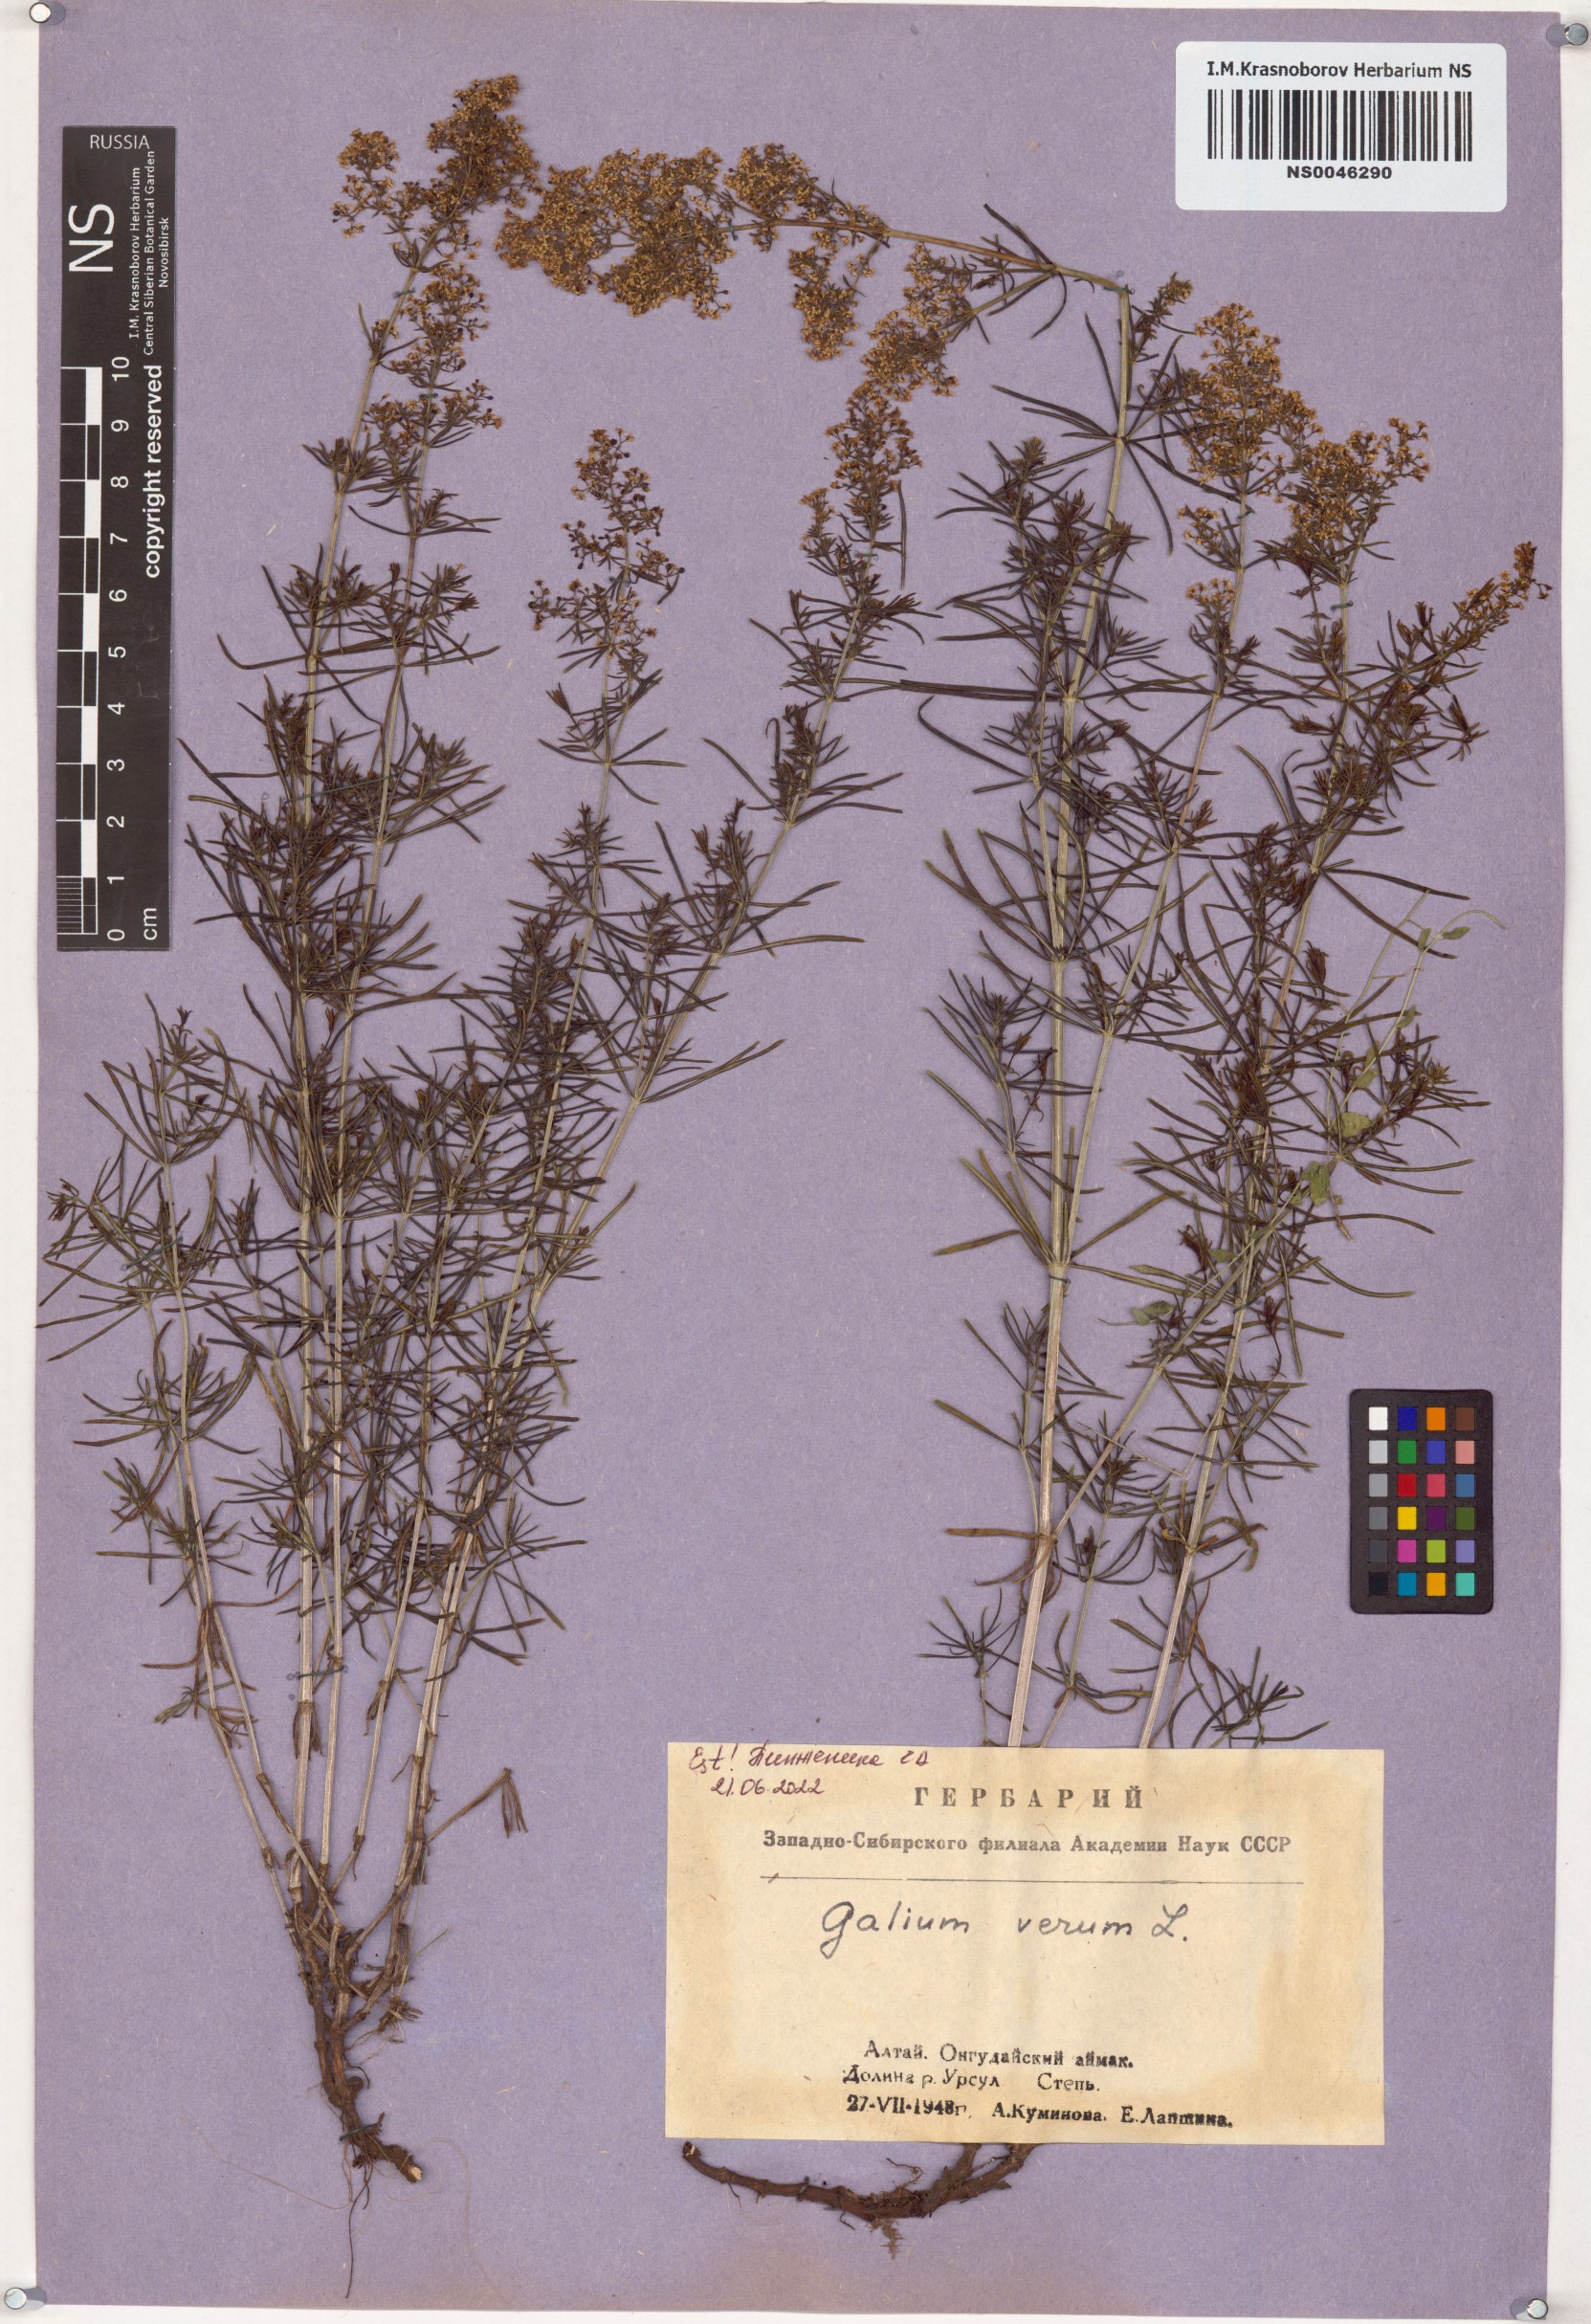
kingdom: Plantae
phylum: Tracheophyta
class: Magnoliopsida
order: Gentianales
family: Rubiaceae
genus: Galium
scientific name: Galium verum
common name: Lady's bedstraw
